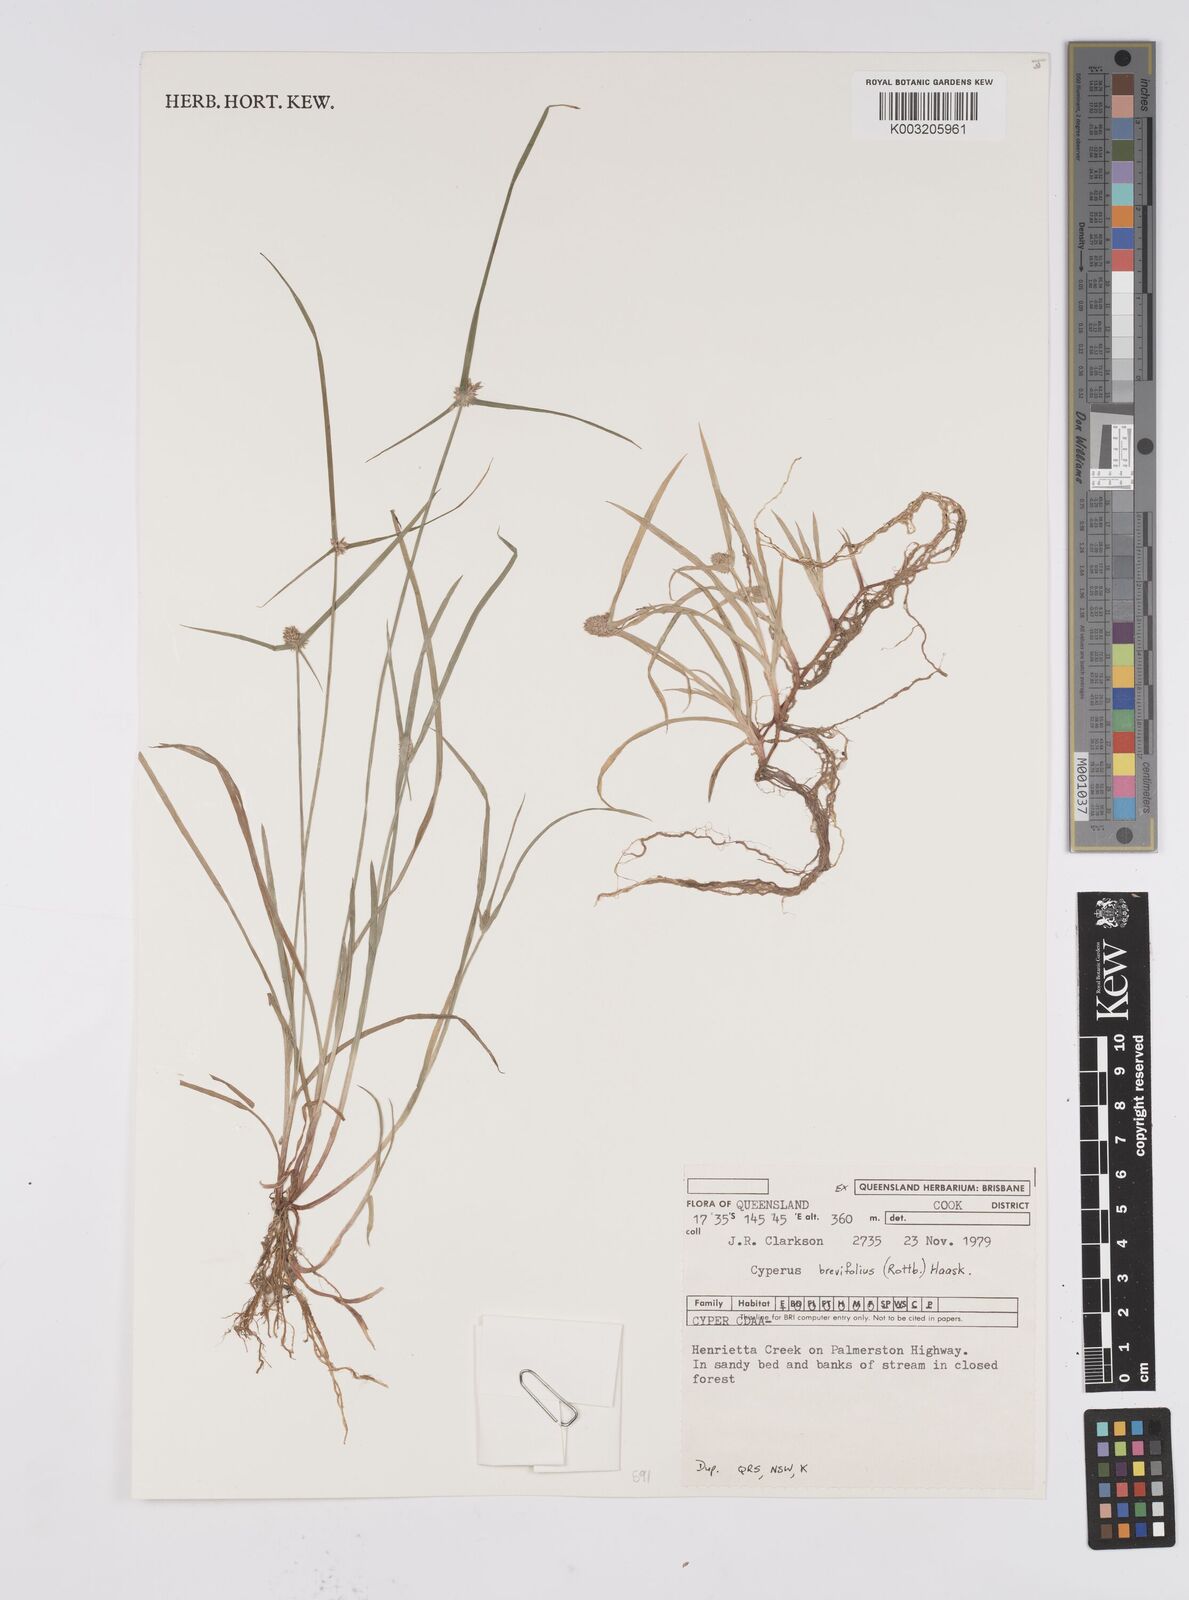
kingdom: Plantae
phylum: Tracheophyta
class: Liliopsida
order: Poales
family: Cyperaceae
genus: Cyperus
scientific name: Cyperus brevifolius
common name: Globe kyllinga
